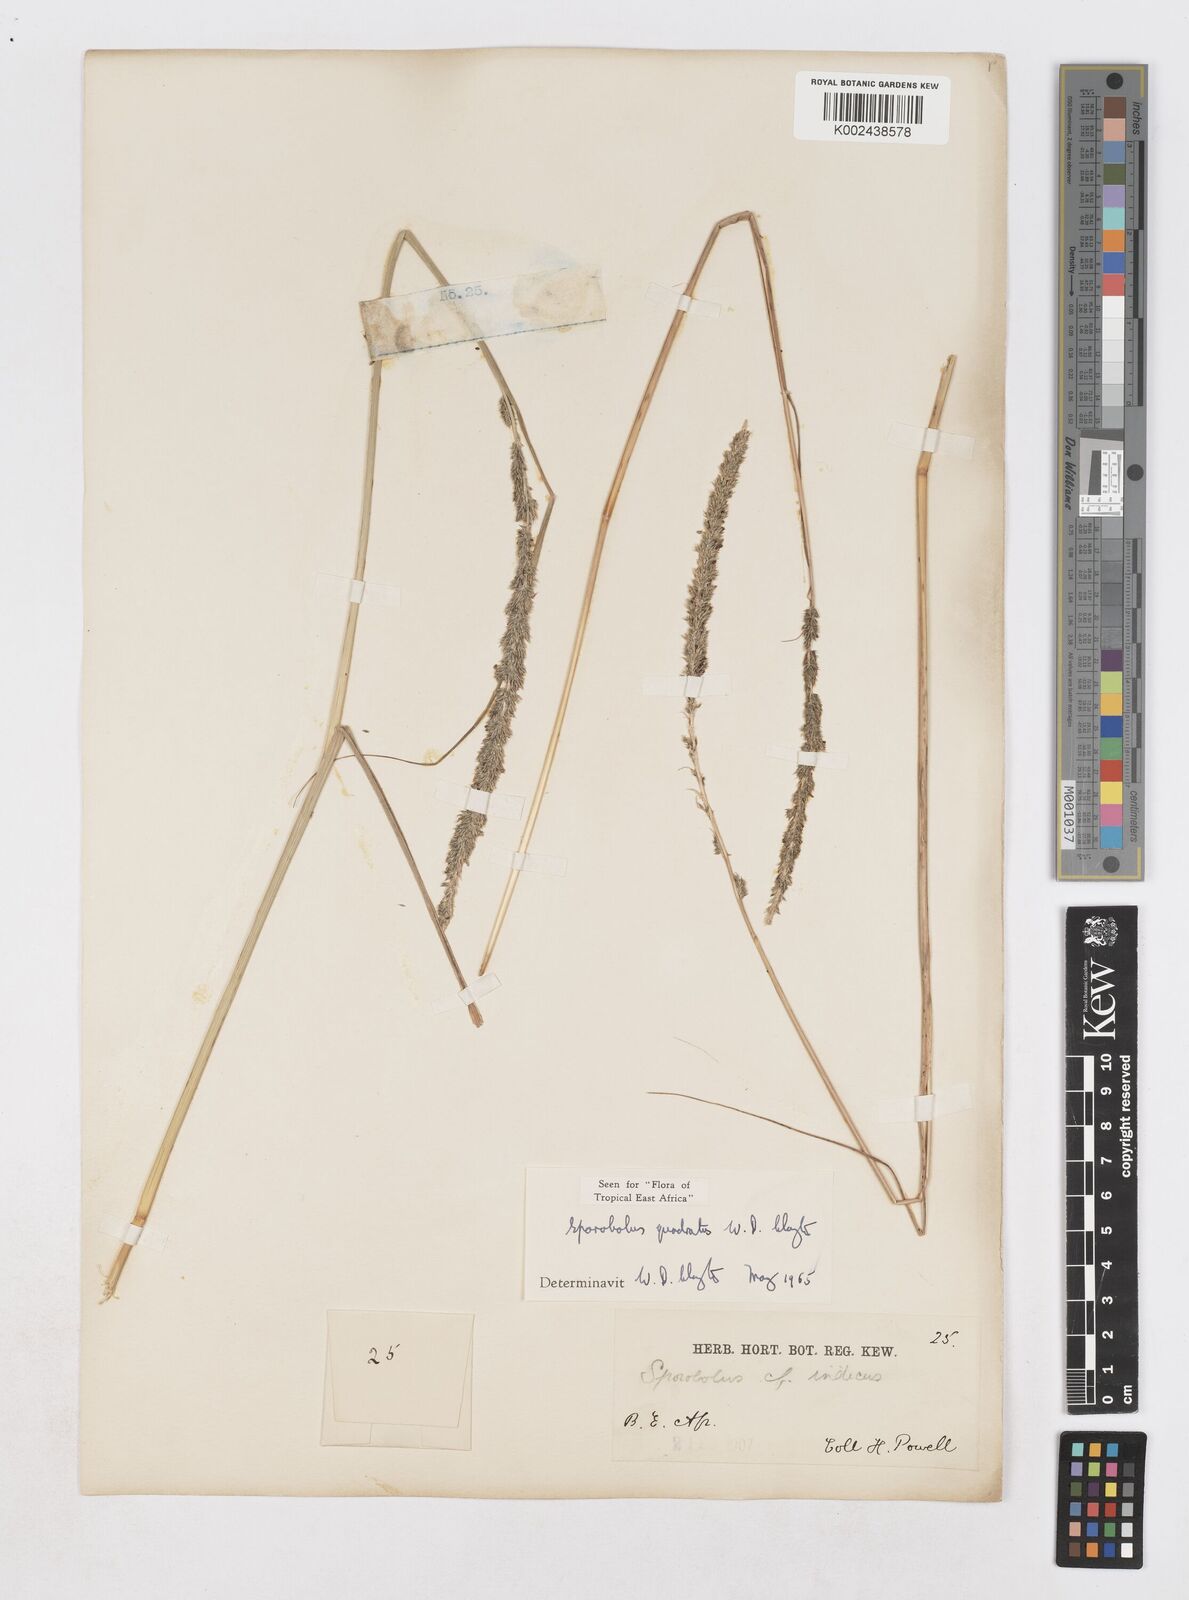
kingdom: Plantae
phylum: Tracheophyta
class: Liliopsida
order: Poales
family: Poaceae
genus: Sporobolus
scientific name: Sporobolus quadratus
